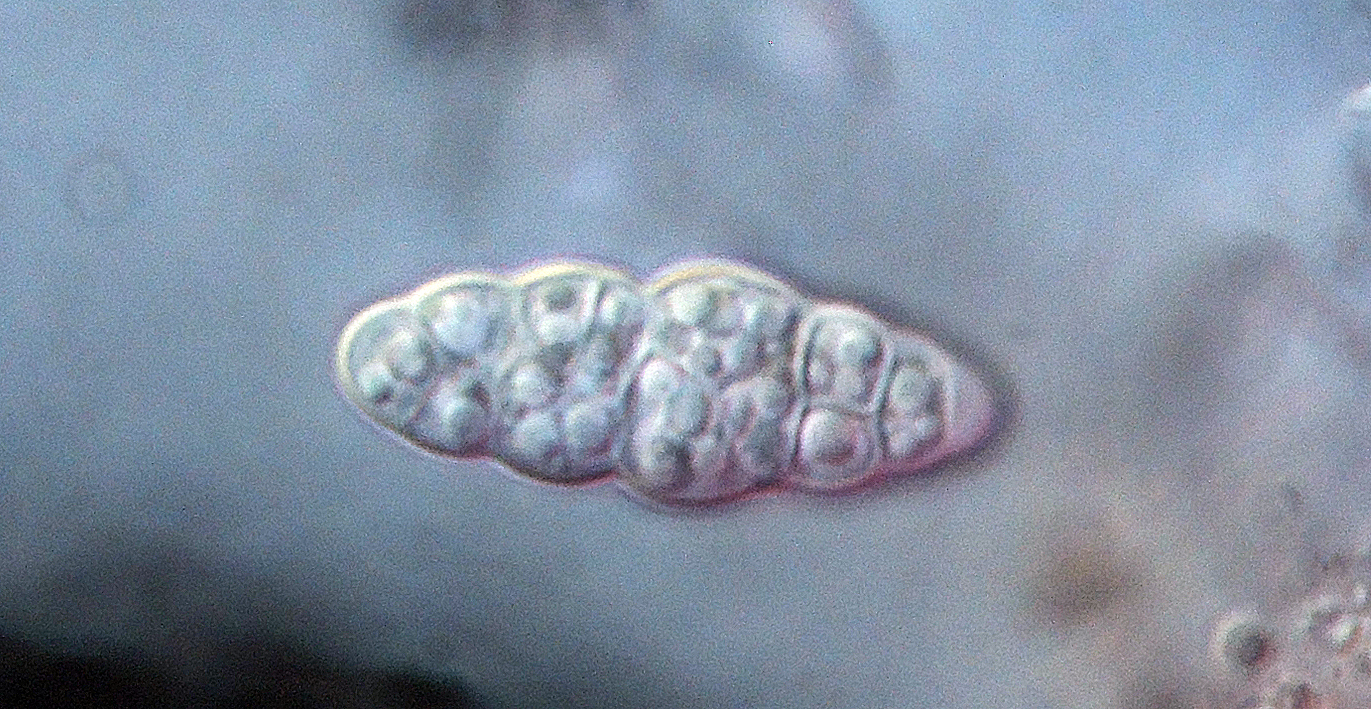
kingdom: Fungi
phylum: Ascomycota
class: Dothideomycetes
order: Hysteriales
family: Hysteriaceae
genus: Hysterobrevium
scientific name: Hysterobrevium smilacis
